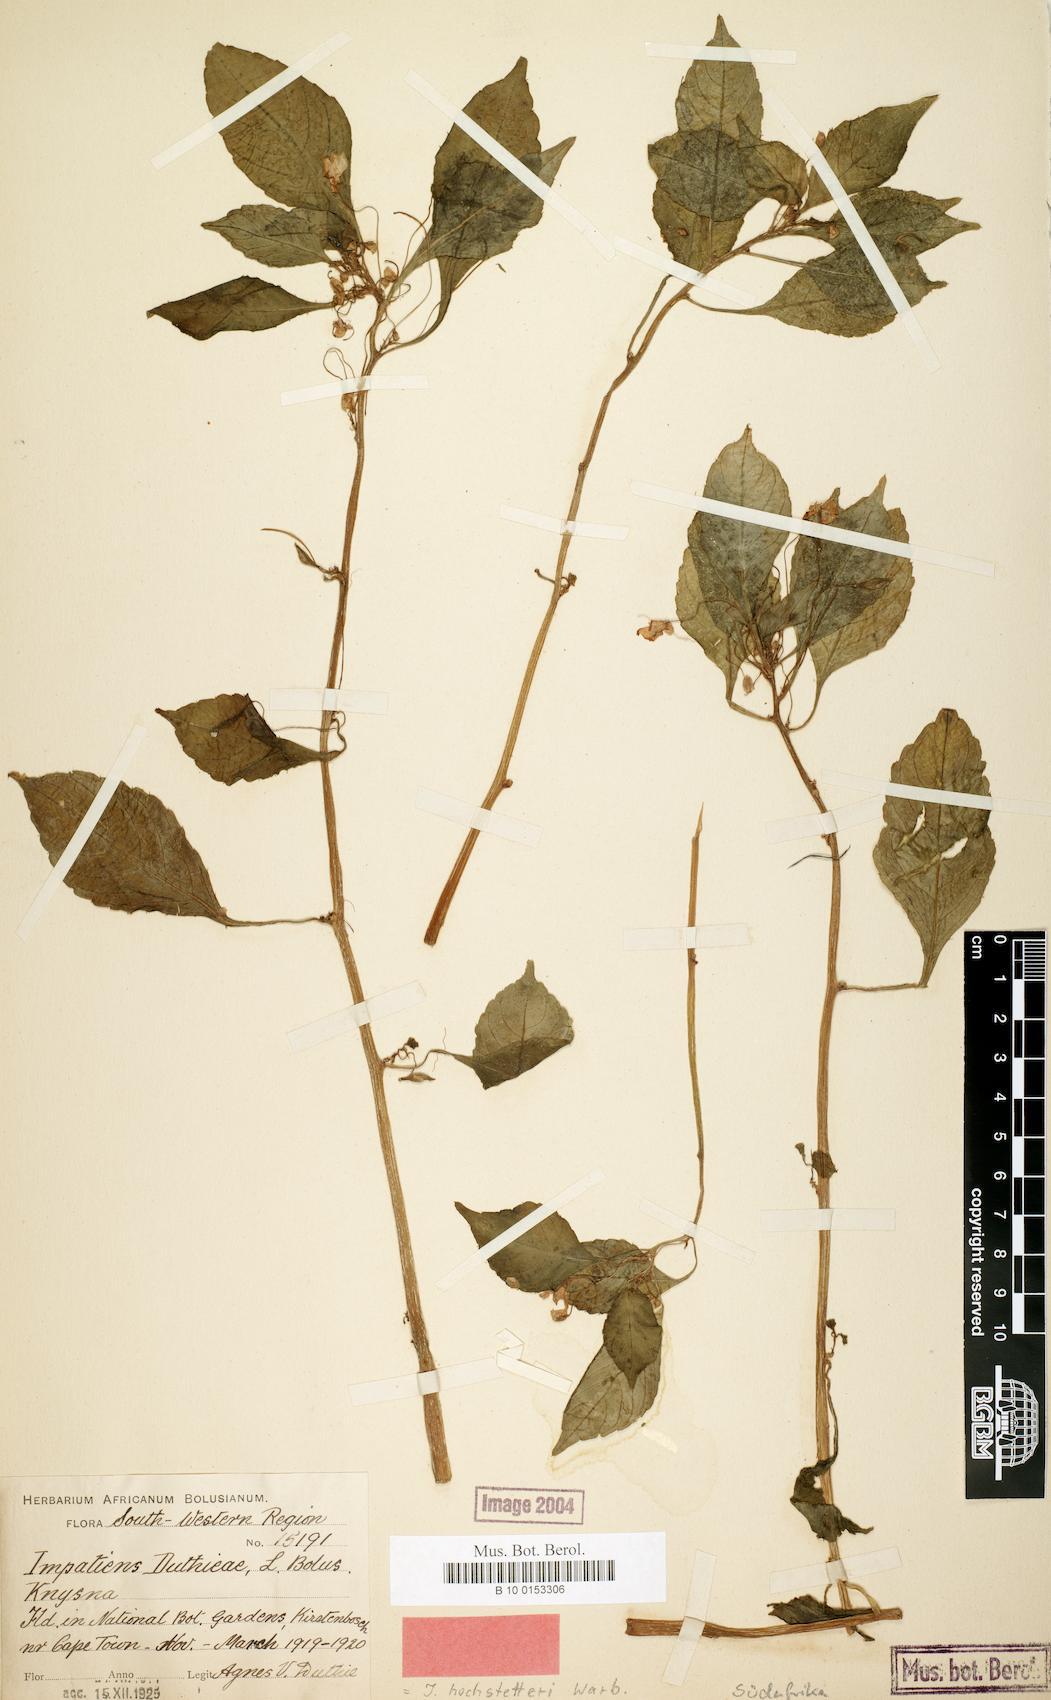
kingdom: Plantae
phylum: Tracheophyta
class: Magnoliopsida
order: Ericales
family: Balsaminaceae
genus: Impatiens
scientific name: Impatiens hochstetteri
